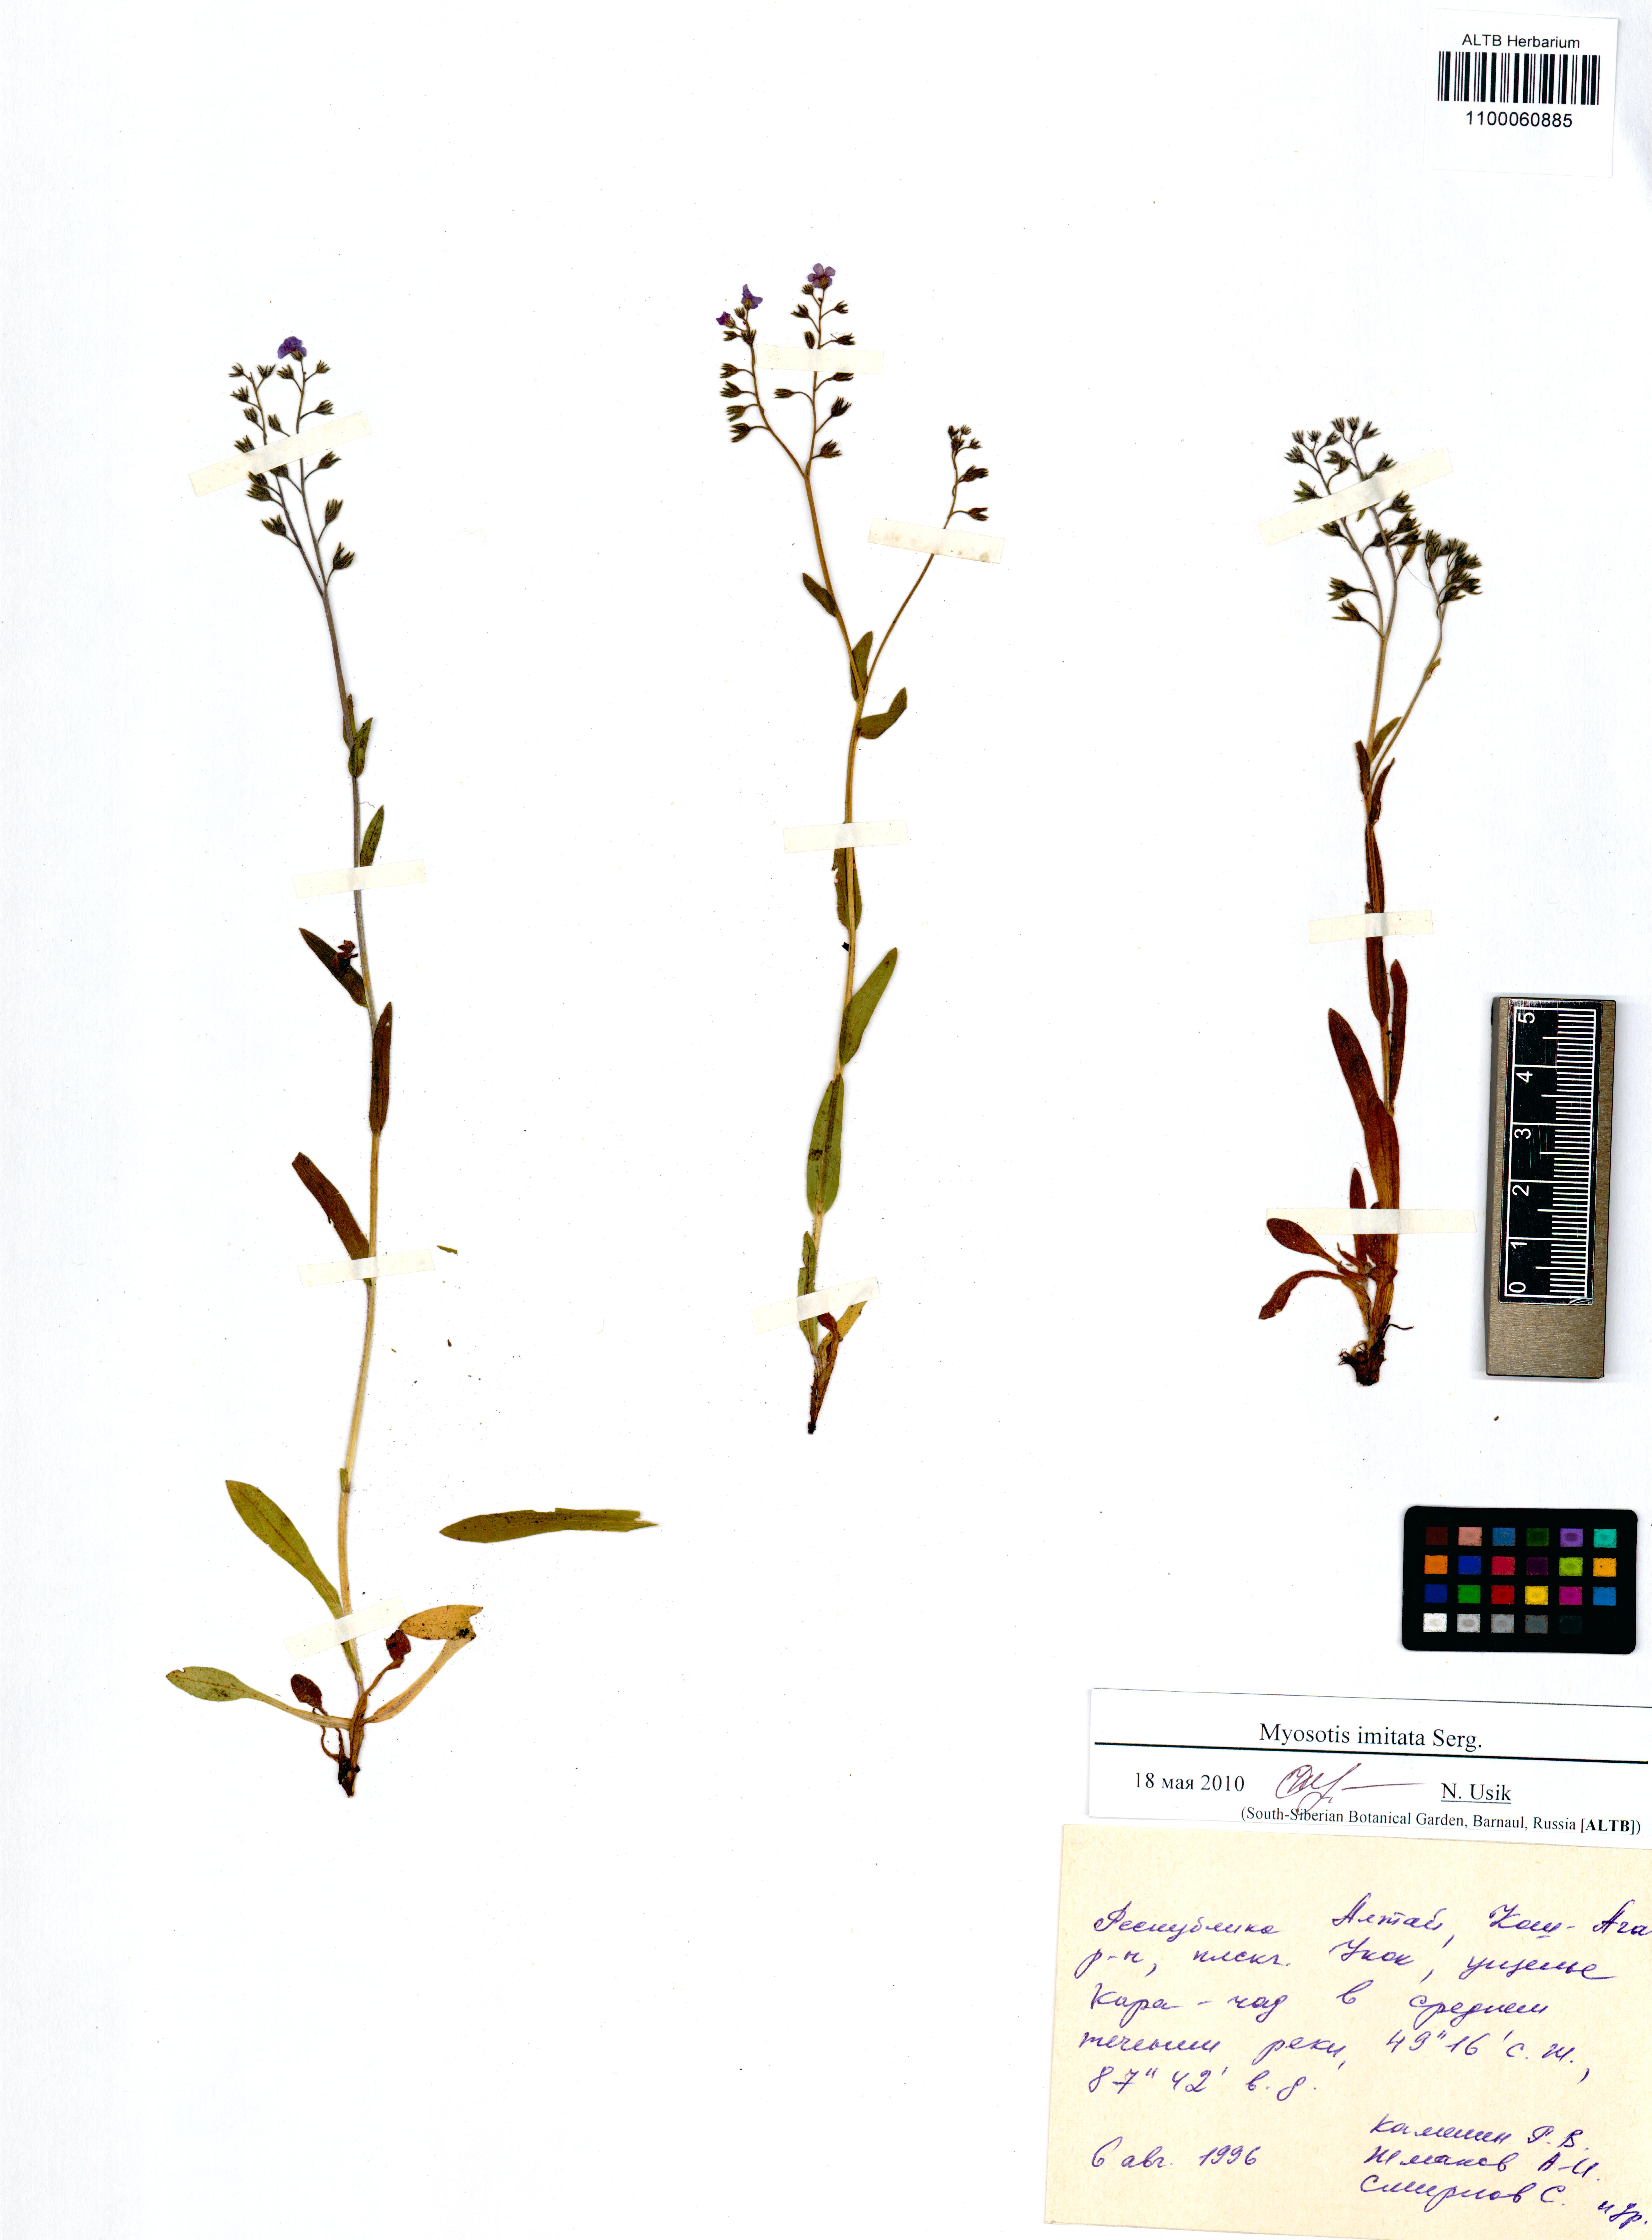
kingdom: Plantae
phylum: Tracheophyta
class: Magnoliopsida
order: Boraginales
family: Boraginaceae
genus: Myosotis
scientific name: Myosotis imitata
